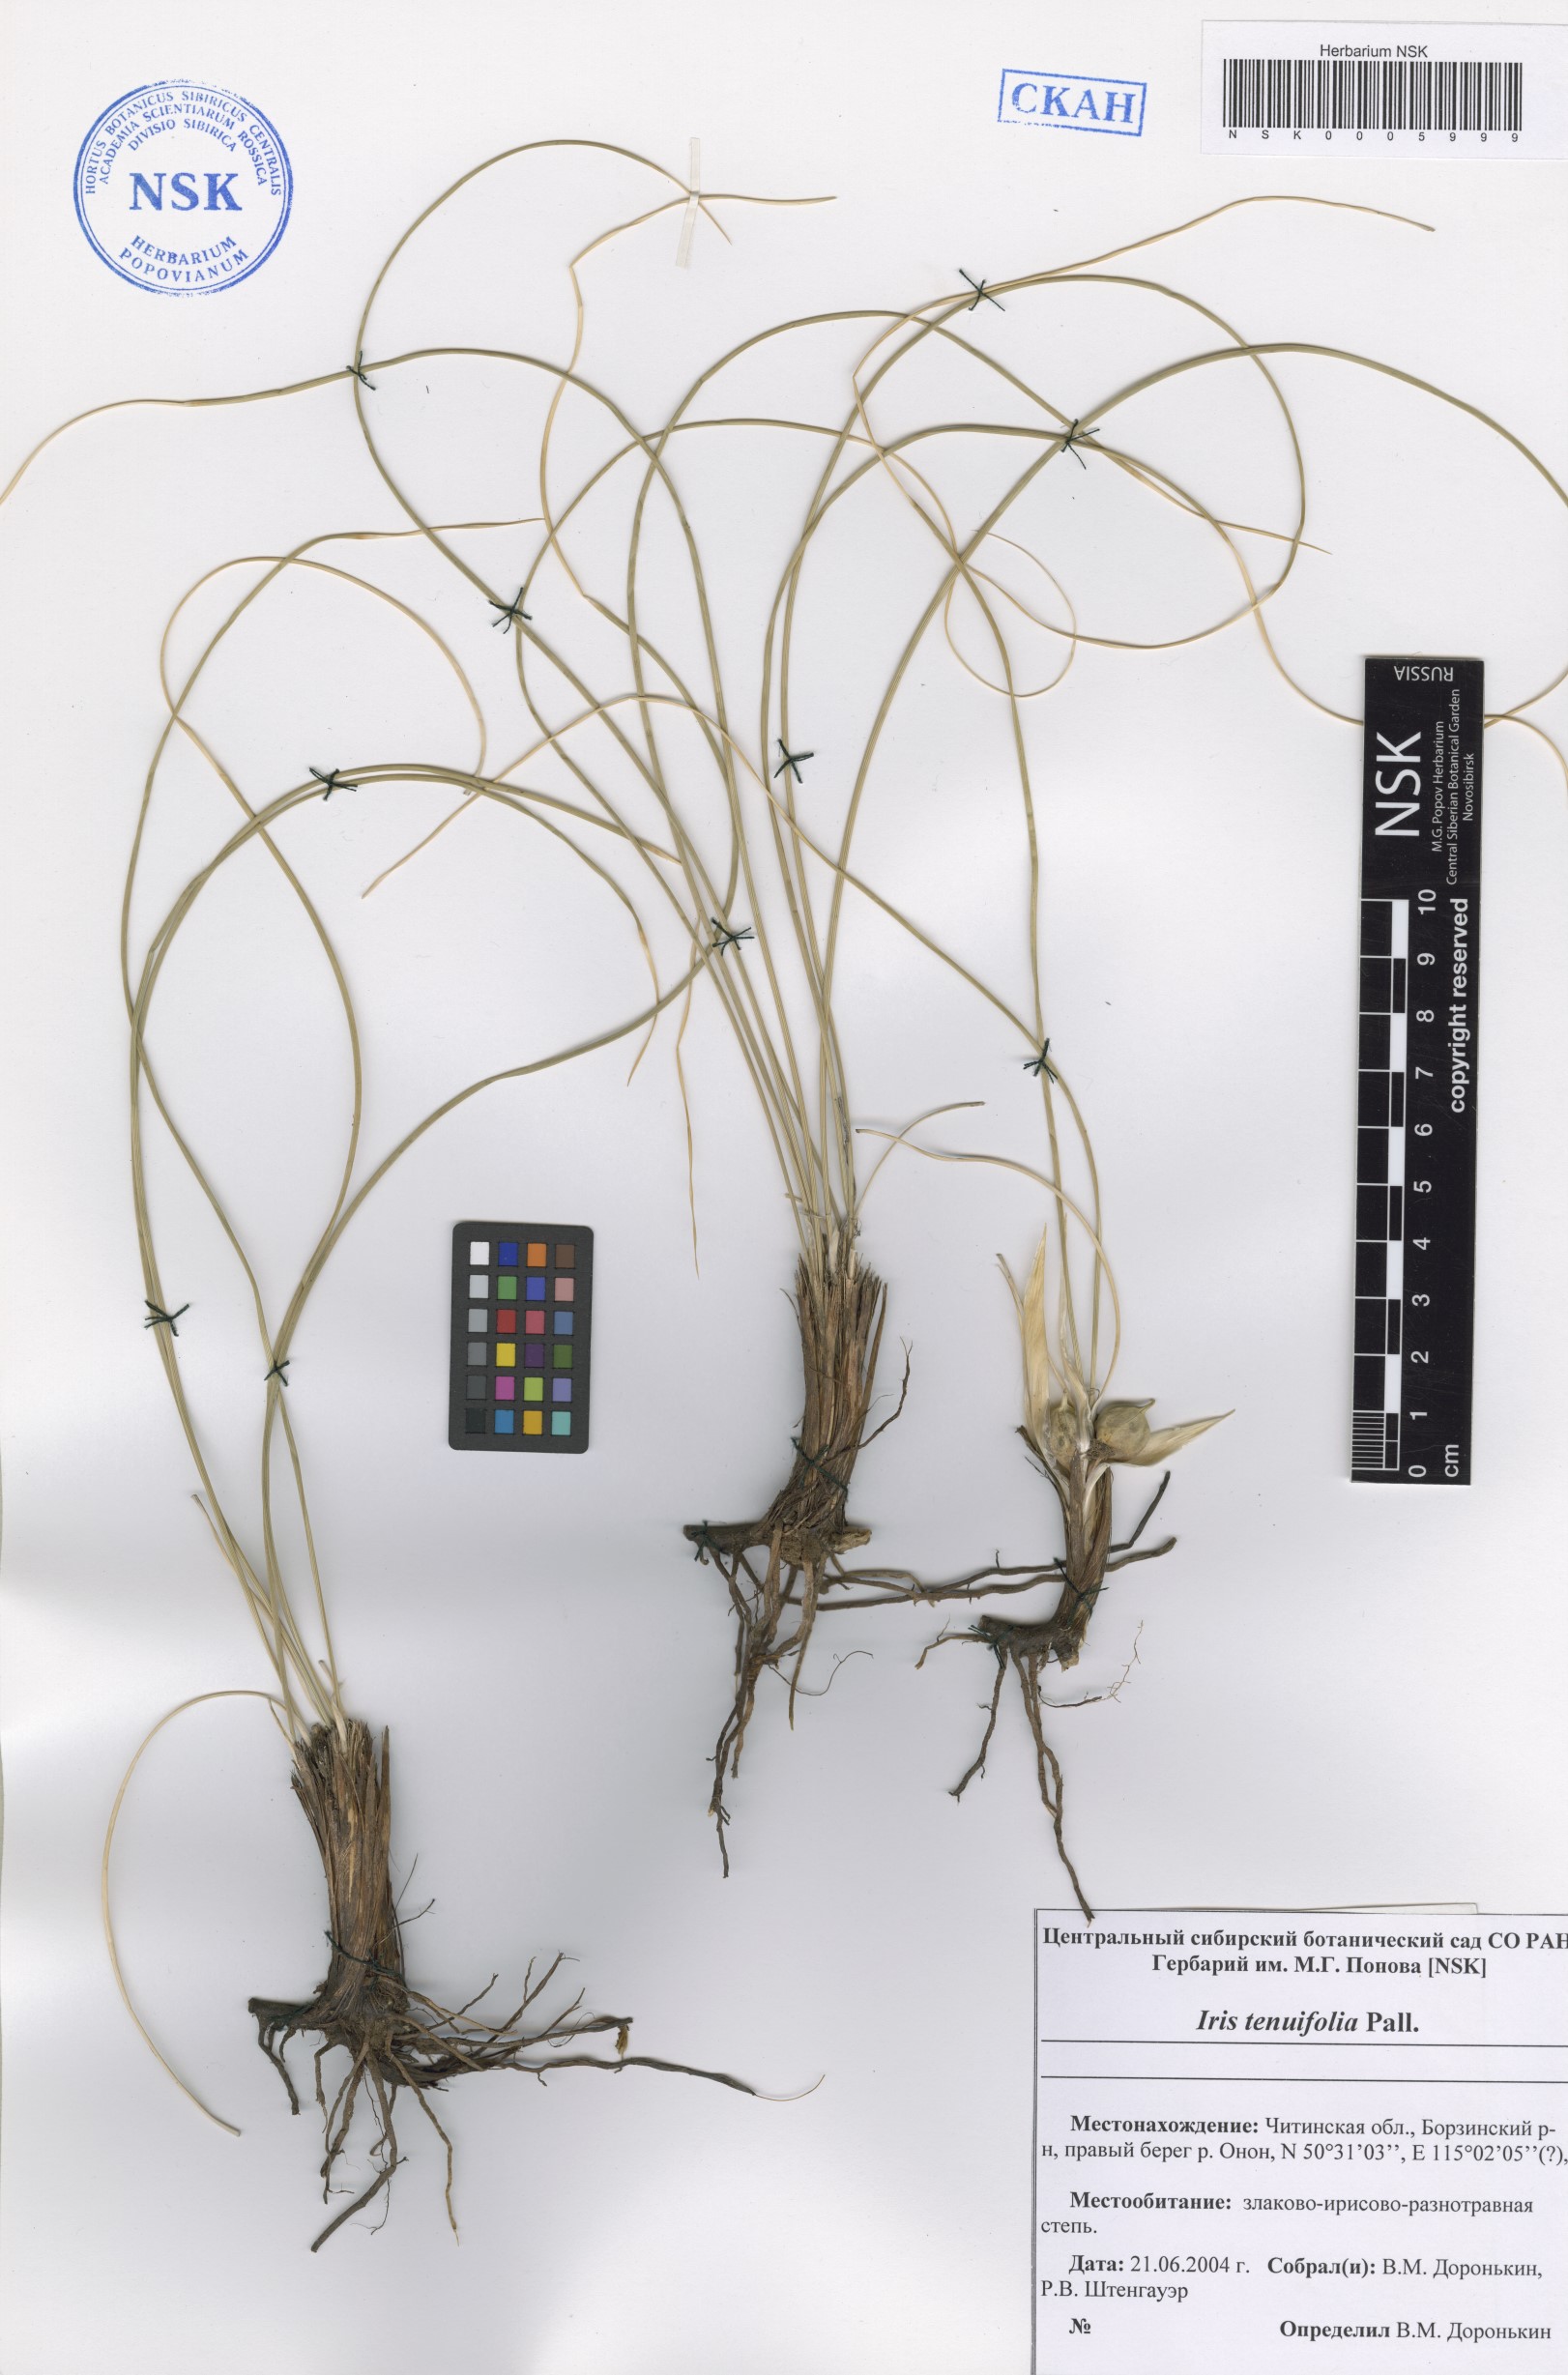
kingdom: Plantae
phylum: Tracheophyta
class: Liliopsida
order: Asparagales
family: Iridaceae
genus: Iris
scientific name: Iris tenuifolia
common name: Slender-leaf iris
